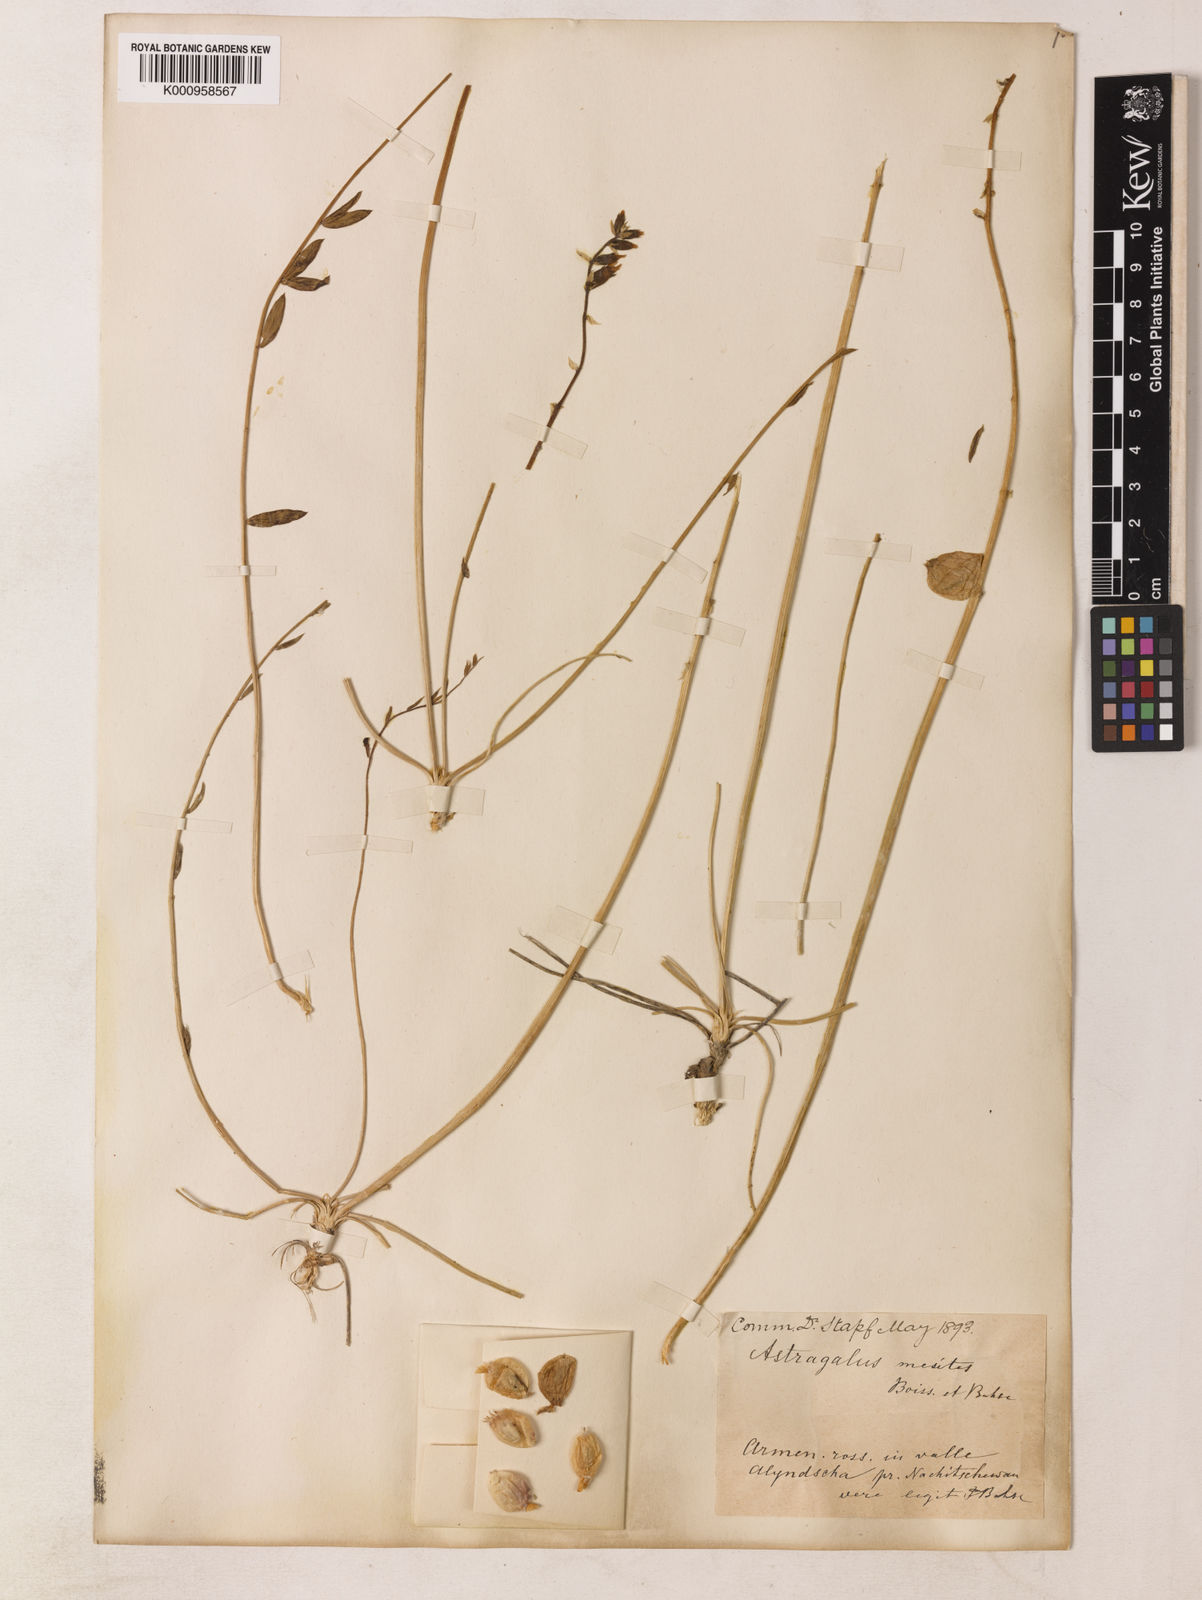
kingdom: Plantae
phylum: Tracheophyta
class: Magnoliopsida
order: Fabales
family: Fabaceae
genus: Astragalus
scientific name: Astragalus halicacabus
